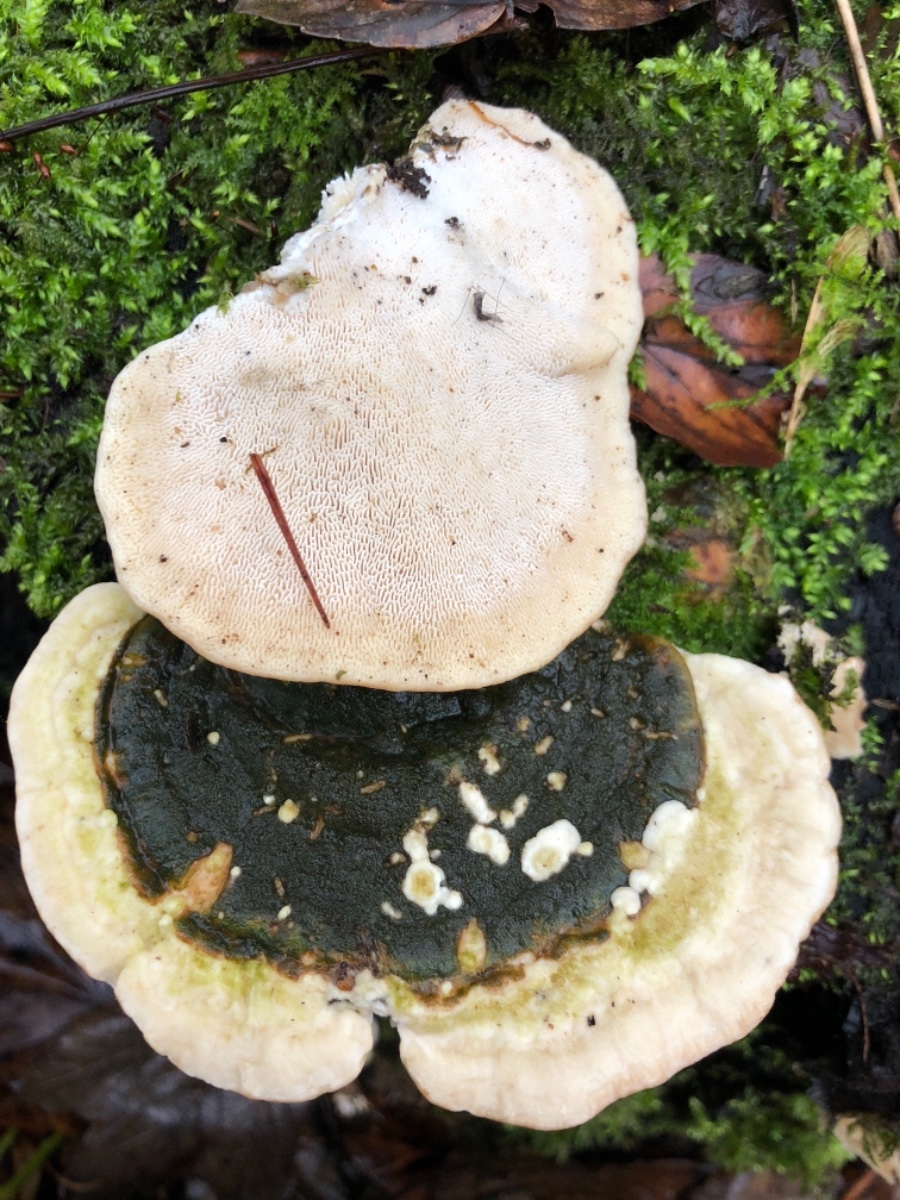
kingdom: Fungi
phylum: Basidiomycota
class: Agaricomycetes
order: Polyporales
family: Polyporaceae
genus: Trametes
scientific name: Trametes gibbosa
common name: puklet læderporesvamp
